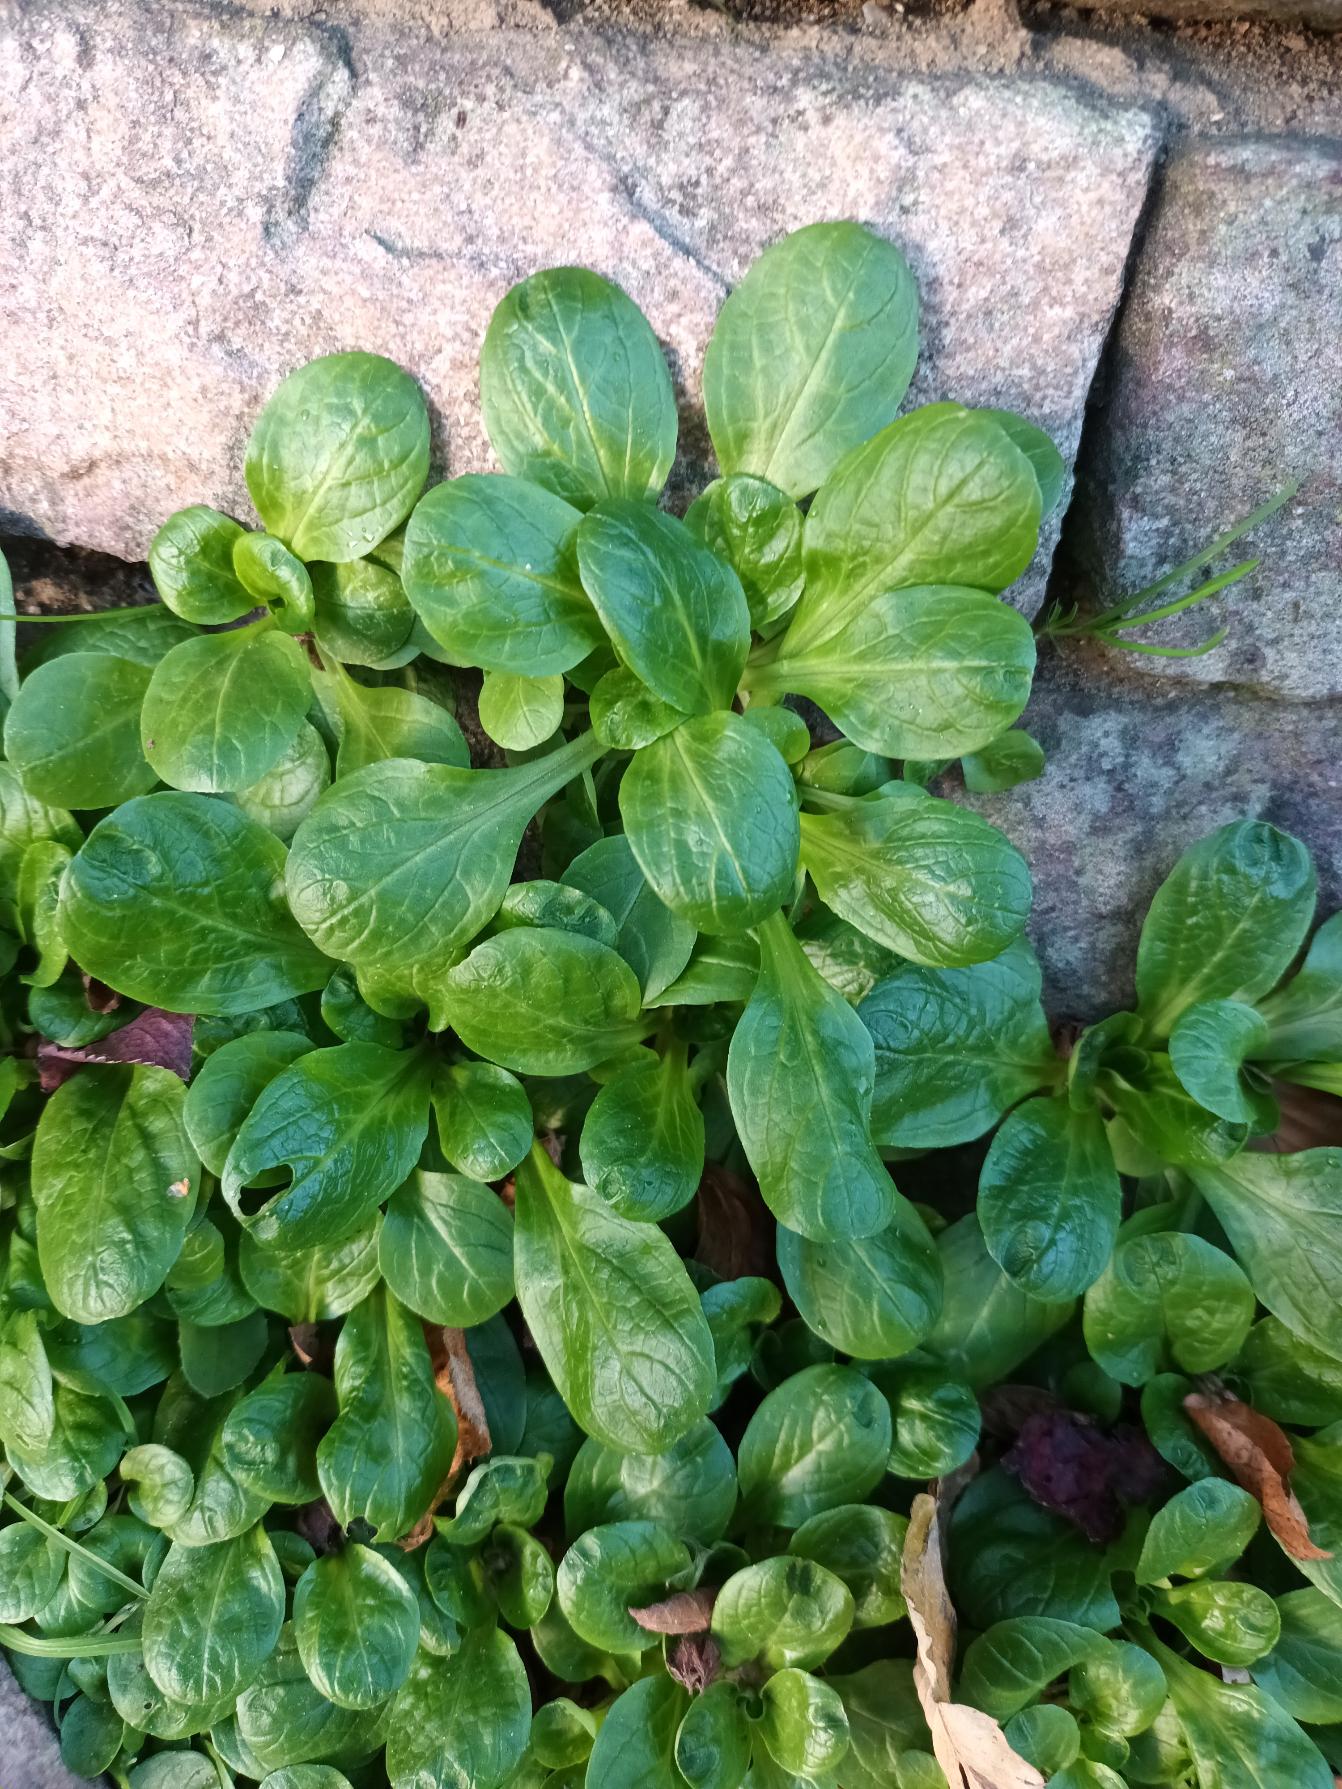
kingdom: Plantae
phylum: Tracheophyta
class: Magnoliopsida
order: Dipsacales
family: Caprifoliaceae
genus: Valerianella
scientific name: Valerianella locusta
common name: Tandfri vårsalat
